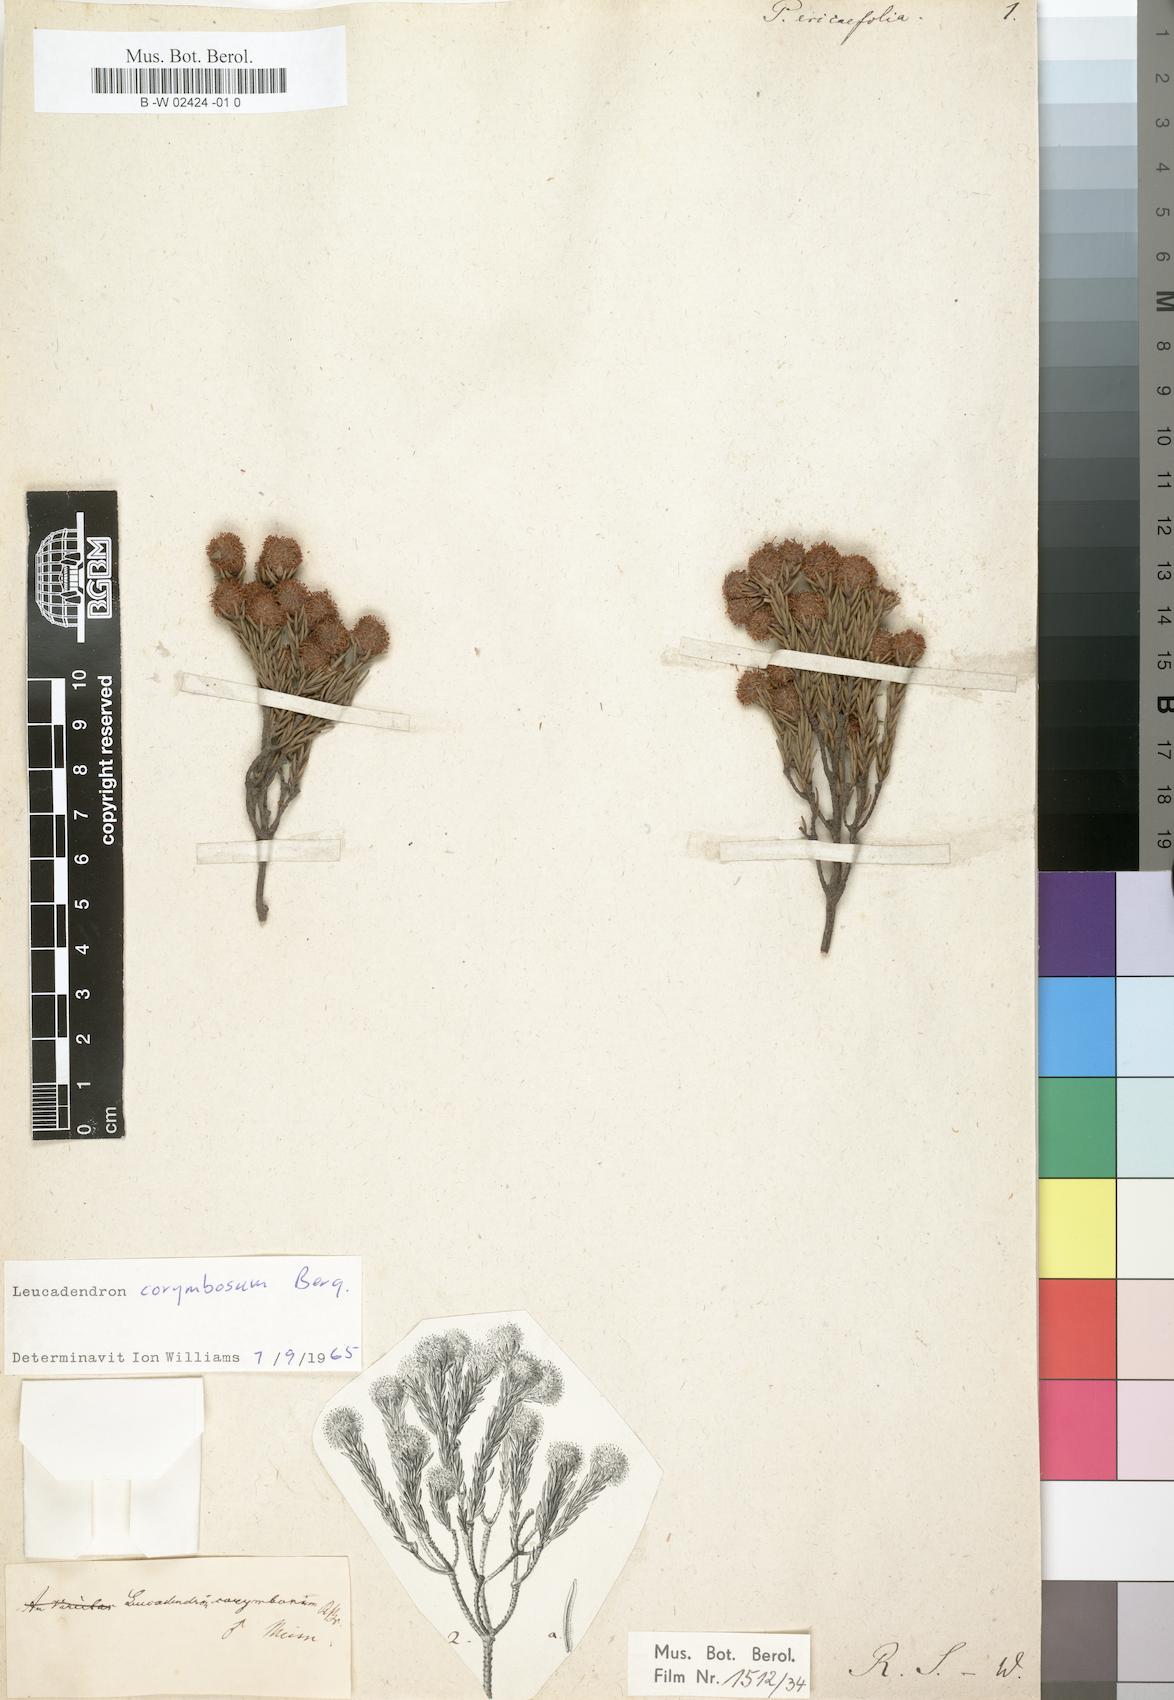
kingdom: Plantae
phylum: Tracheophyta
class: Magnoliopsida
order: Proteales
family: Proteaceae
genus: Leucadendron
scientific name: Leucadendron
